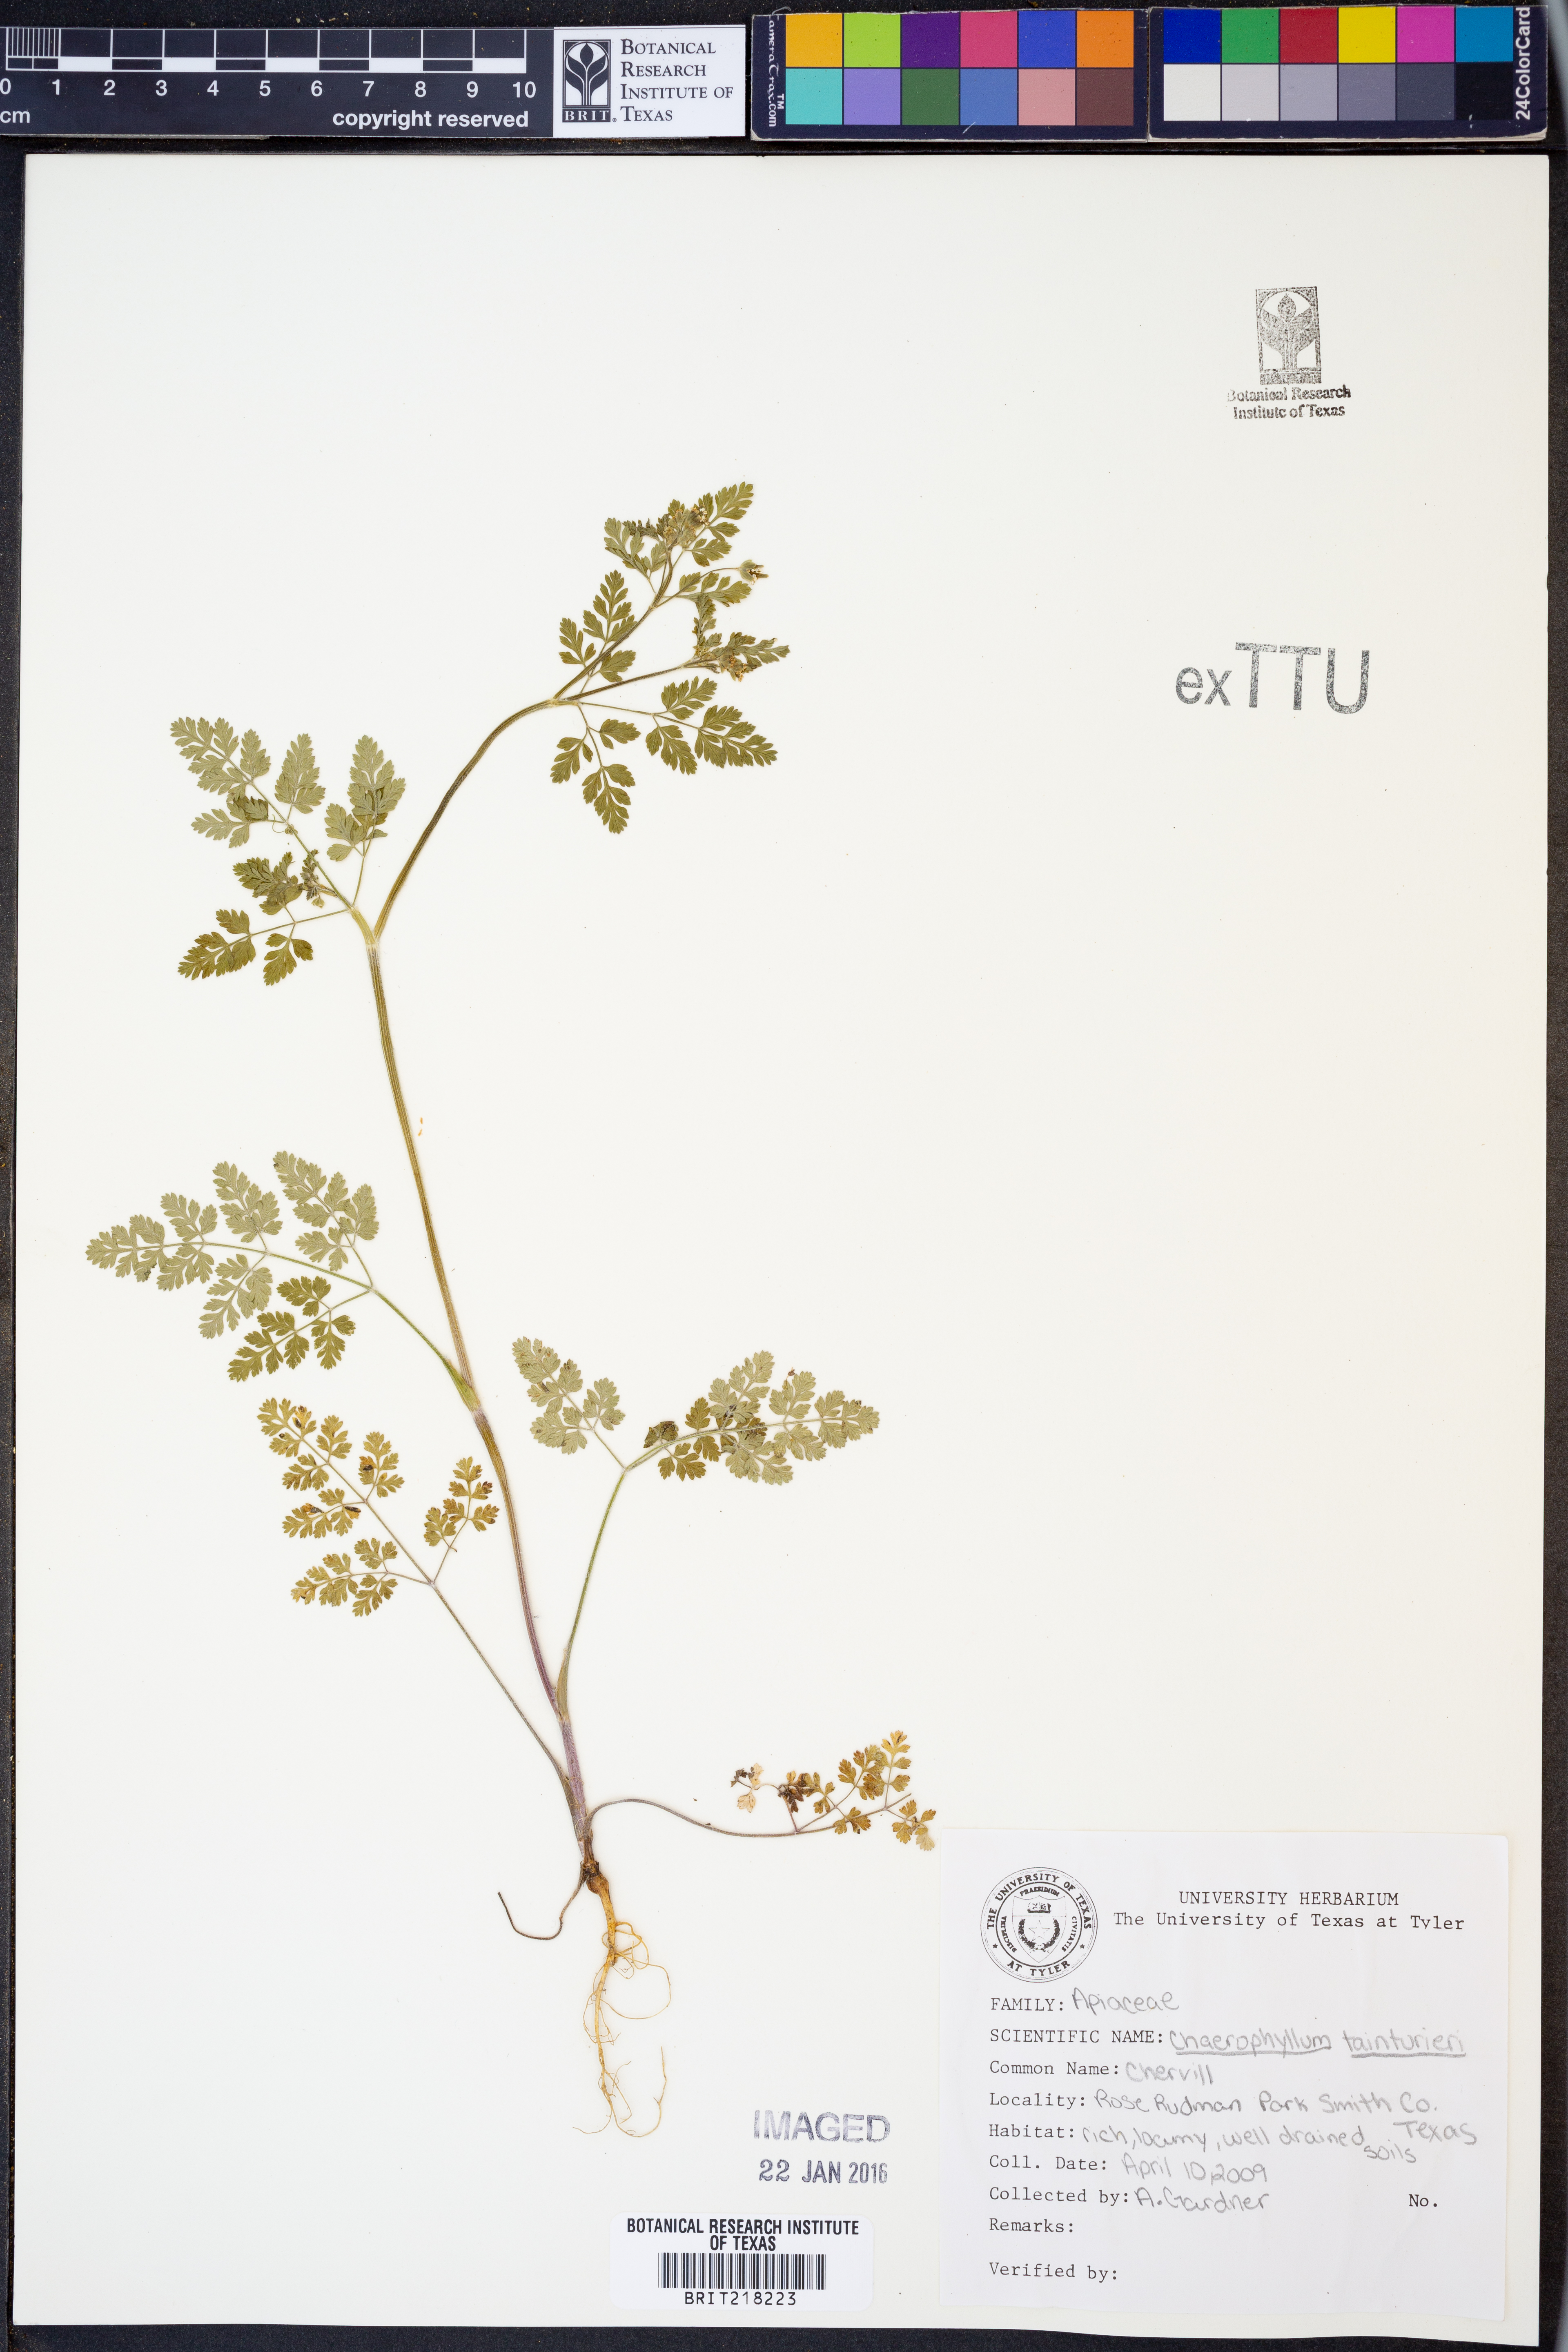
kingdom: Plantae
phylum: Tracheophyta
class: Magnoliopsida
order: Apiales
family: Apiaceae
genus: Chaerophyllum
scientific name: Chaerophyllum tainturieri
